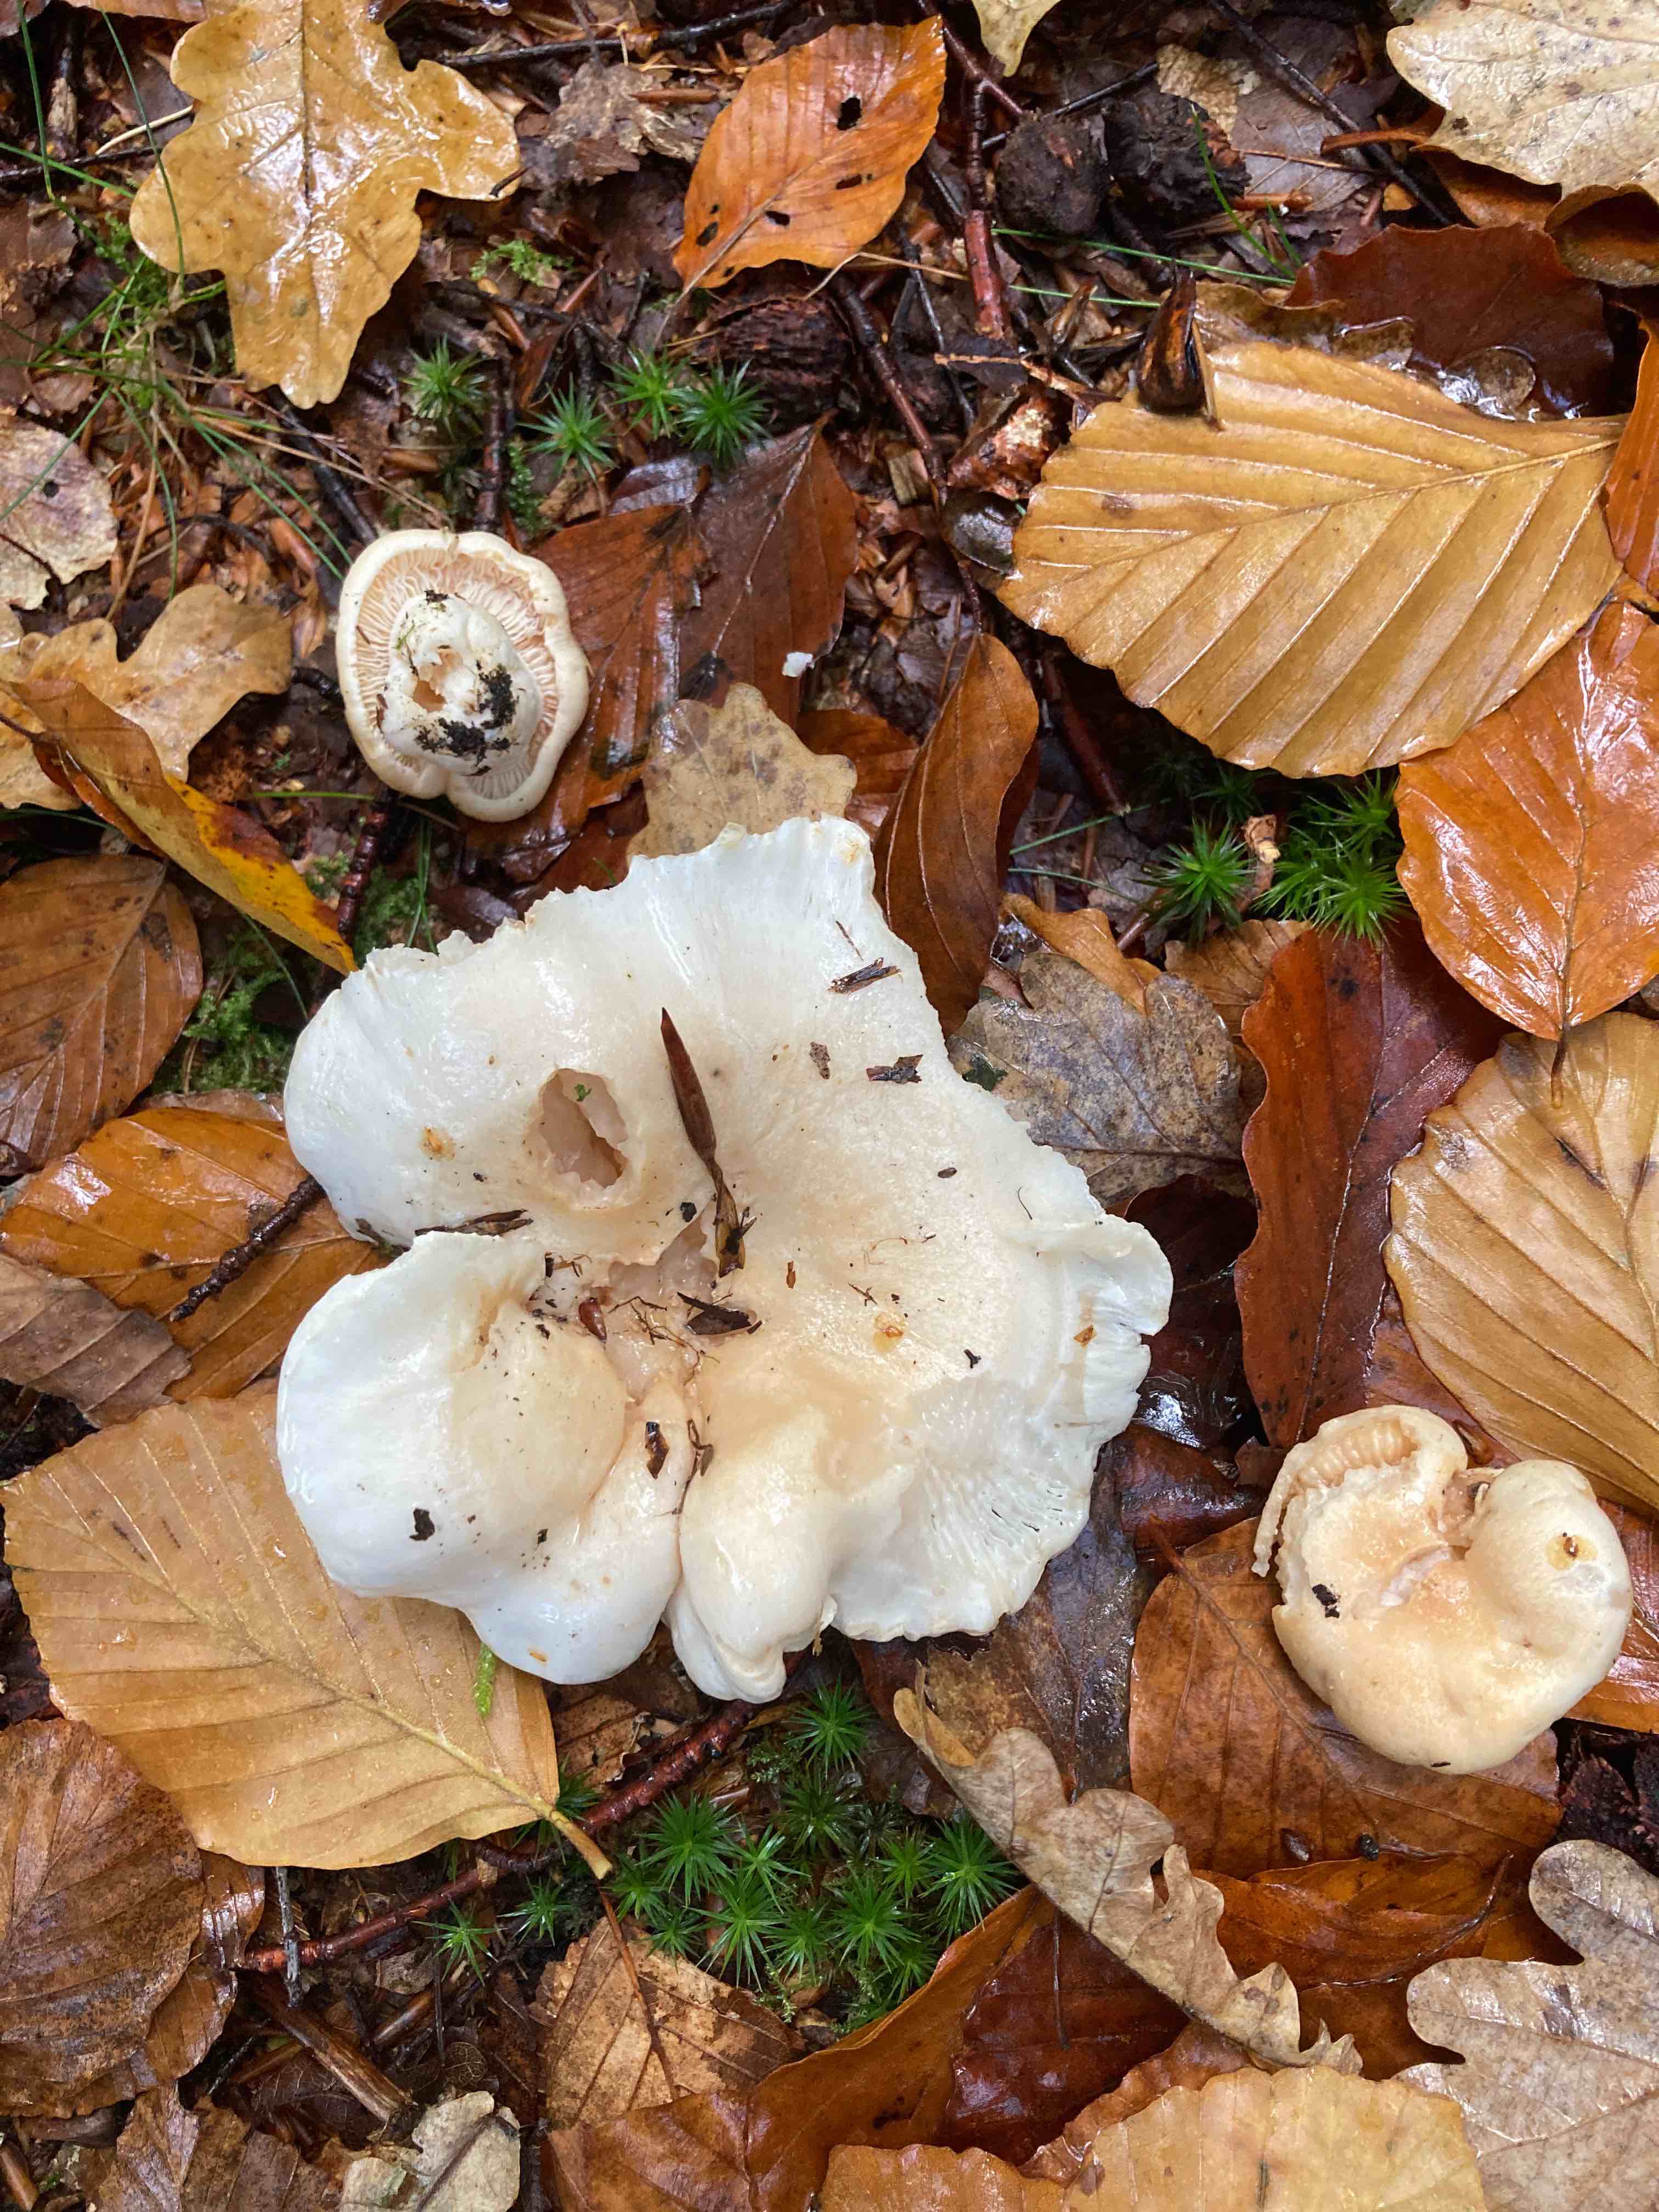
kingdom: Fungi
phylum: Basidiomycota
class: Agaricomycetes
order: Agaricales
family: Hygrophoraceae
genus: Hygrophorus
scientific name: Hygrophorus penarius
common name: spiselig sneglehat
